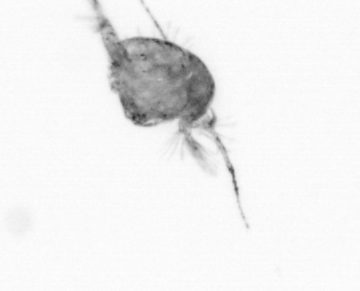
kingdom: Animalia
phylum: Arthropoda
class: Copepoda
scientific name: Copepoda
